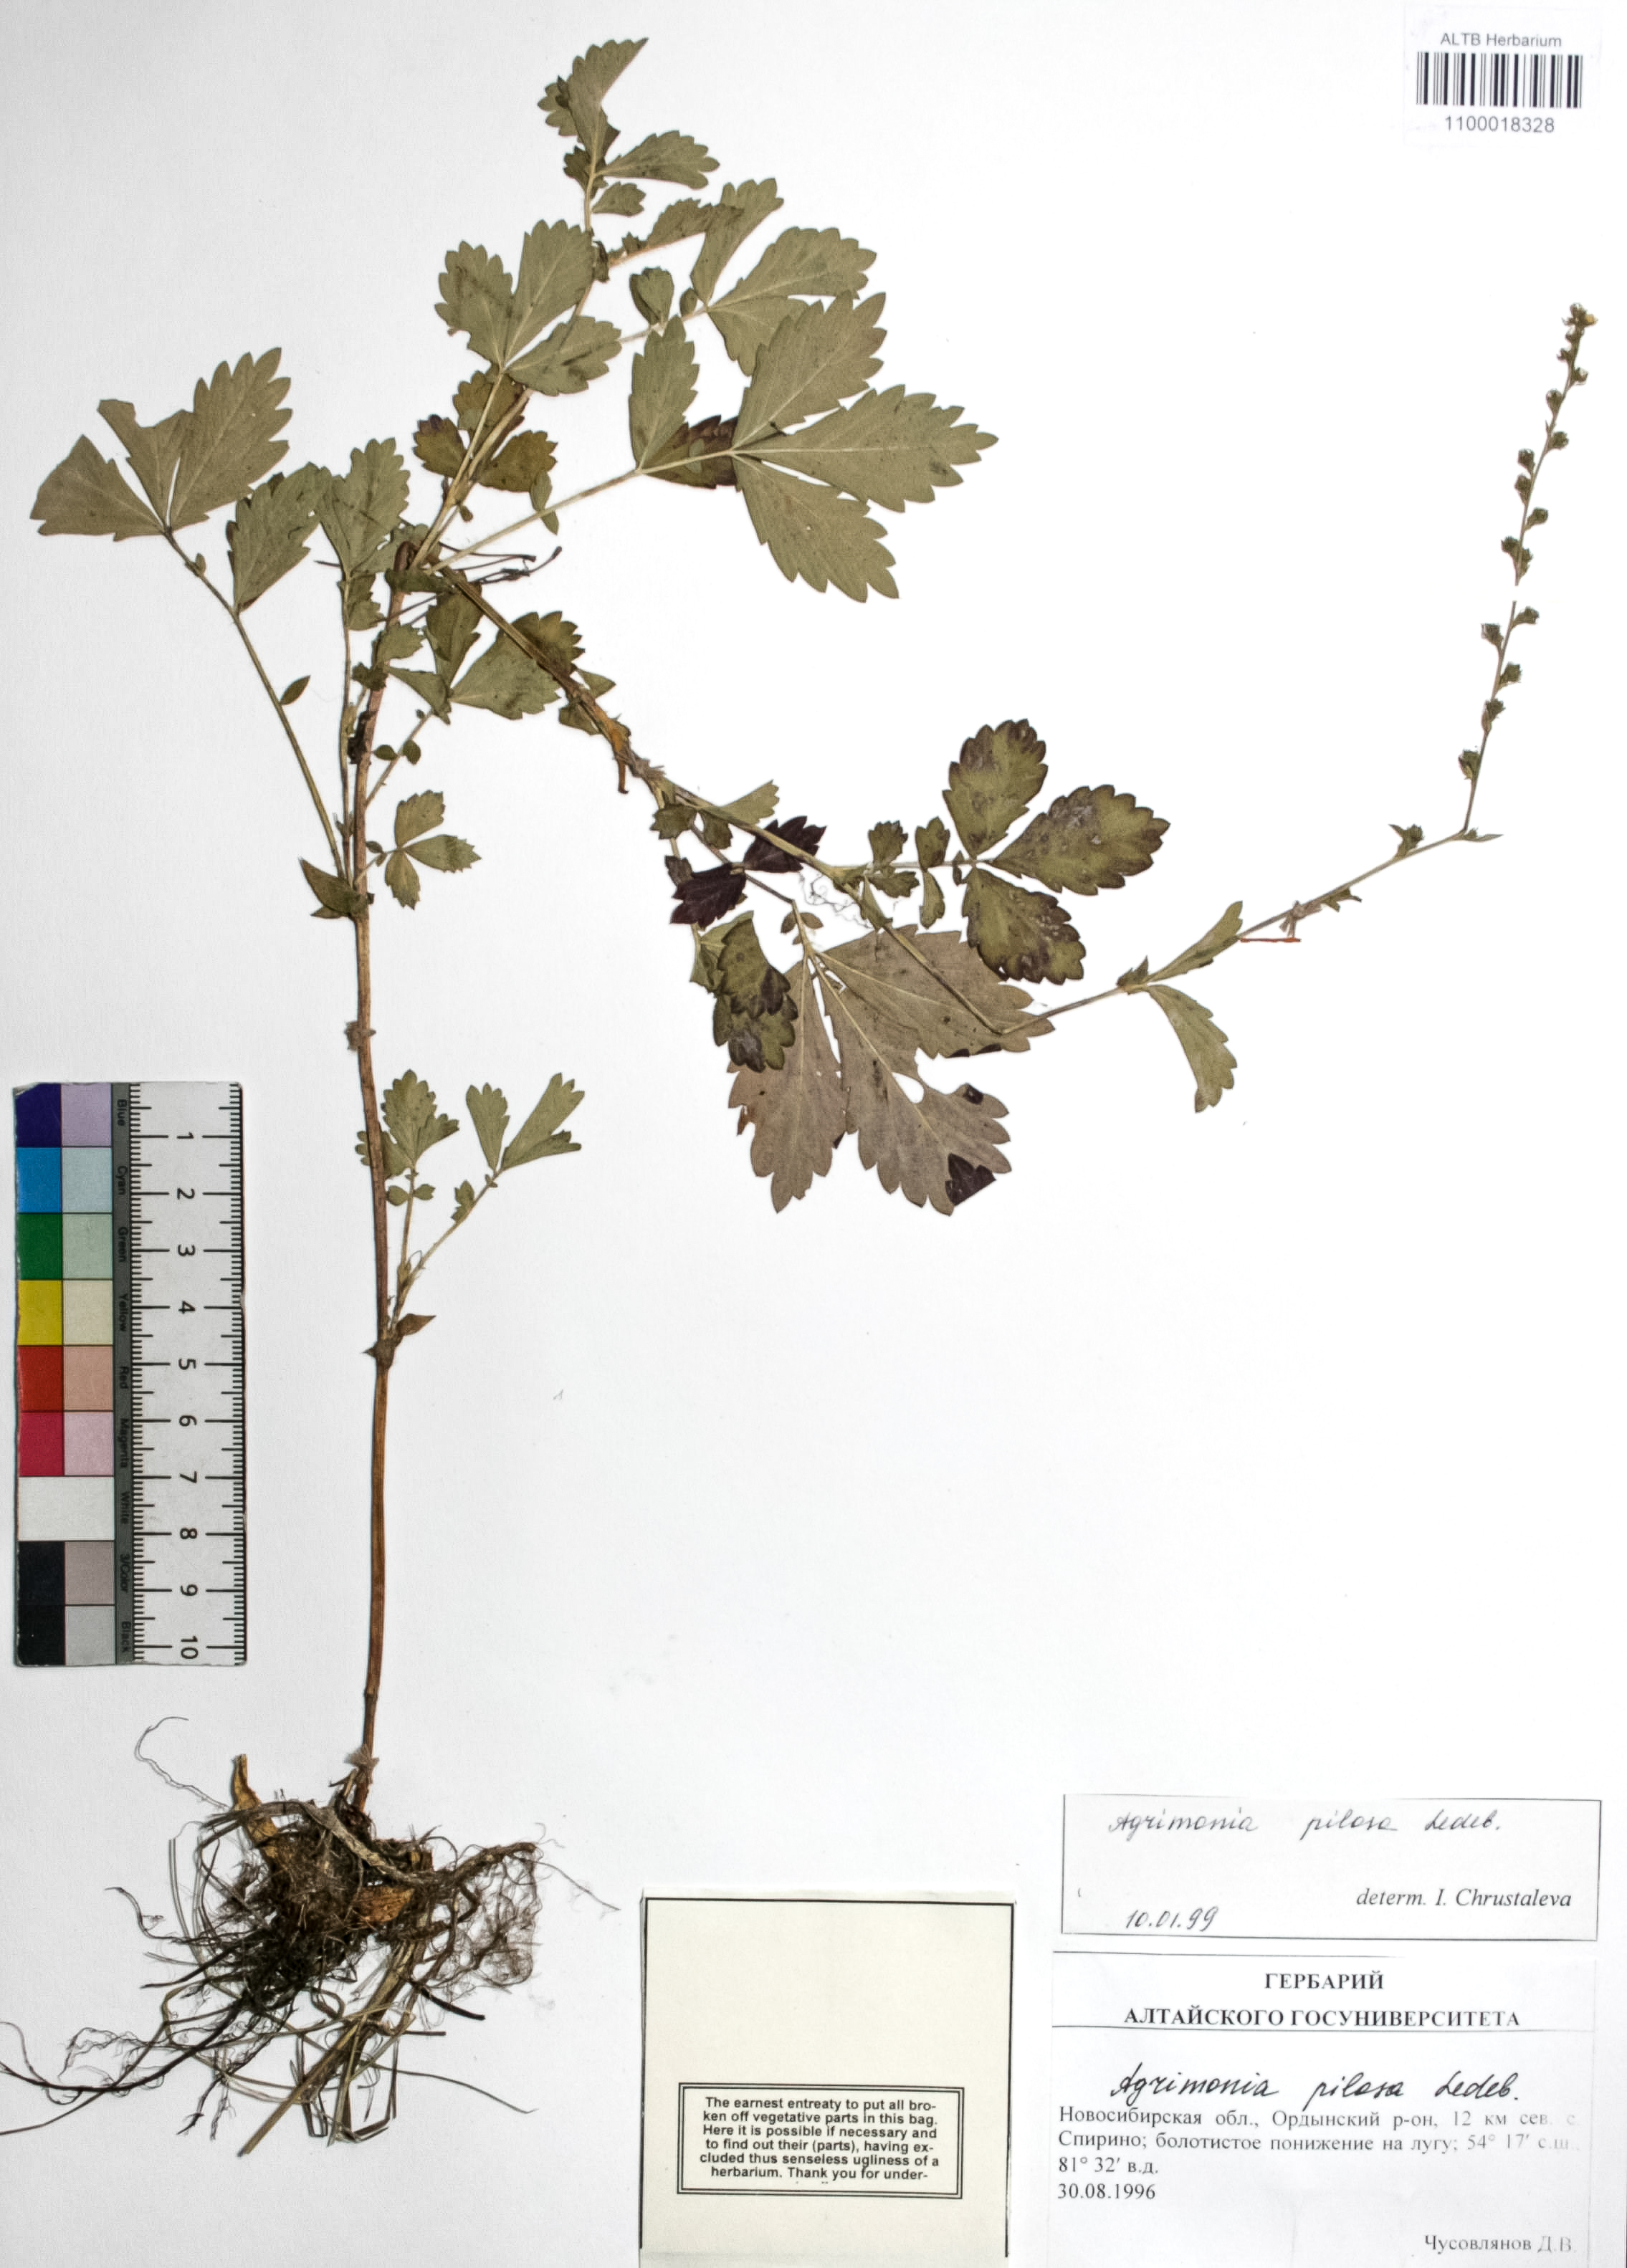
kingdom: Plantae
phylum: Tracheophyta
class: Magnoliopsida
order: Rosales
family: Rosaceae
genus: Agrimonia
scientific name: Agrimonia pilosa
